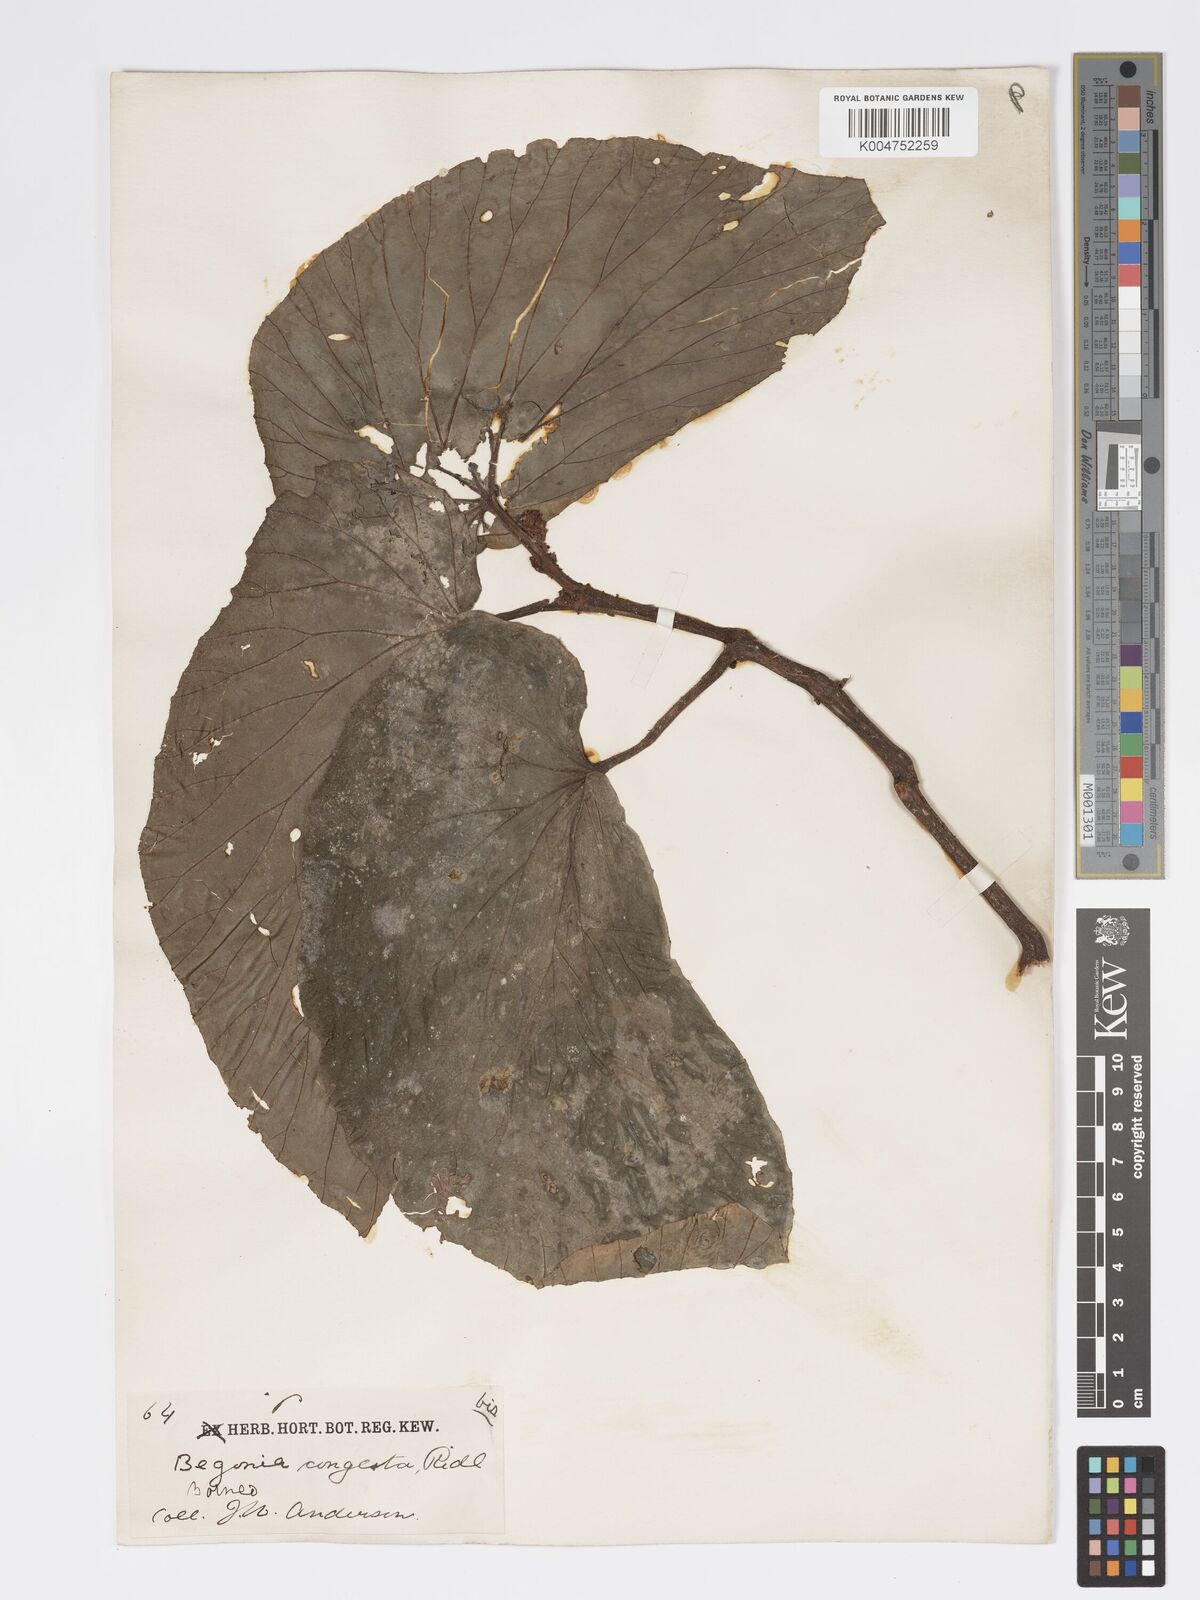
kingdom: Plantae
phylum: Tracheophyta
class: Magnoliopsida
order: Cucurbitales
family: Begoniaceae
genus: Begonia
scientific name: Begonia congesta
